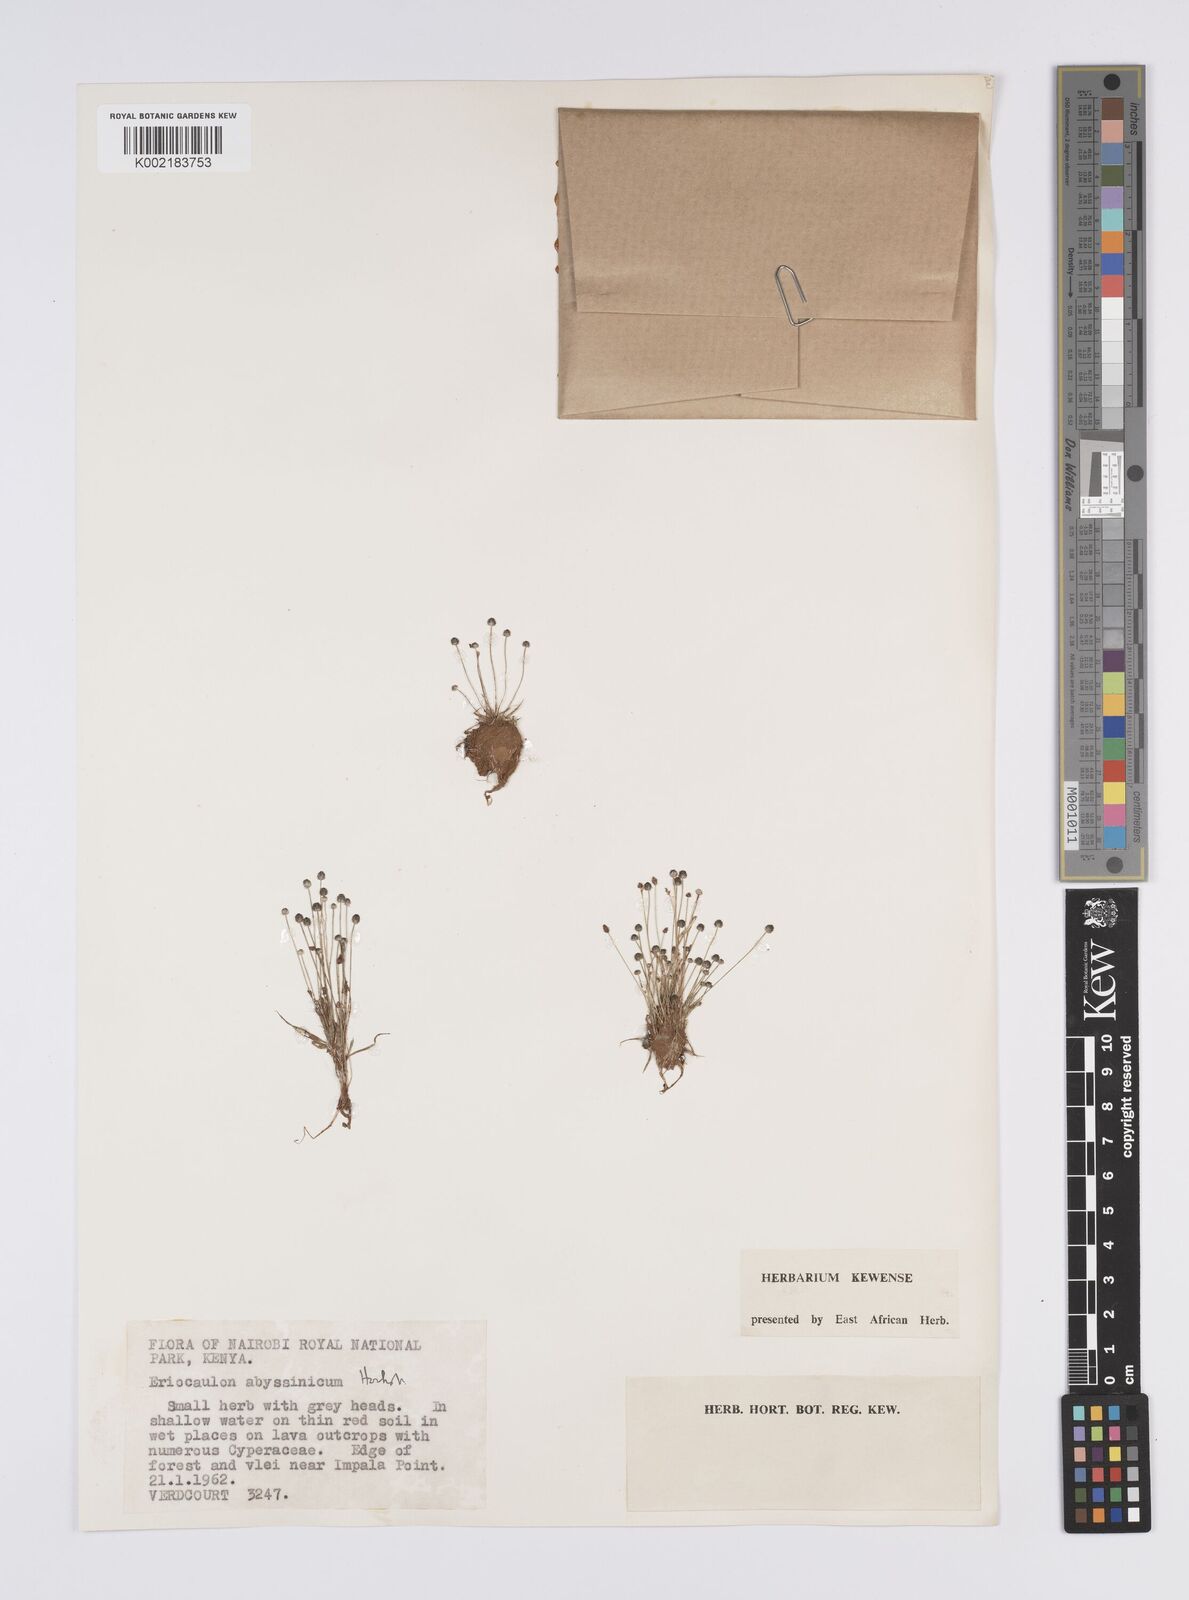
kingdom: Plantae
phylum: Tracheophyta
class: Liliopsida
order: Poales
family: Eriocaulaceae
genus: Eriocaulon
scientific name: Eriocaulon abyssinicum
